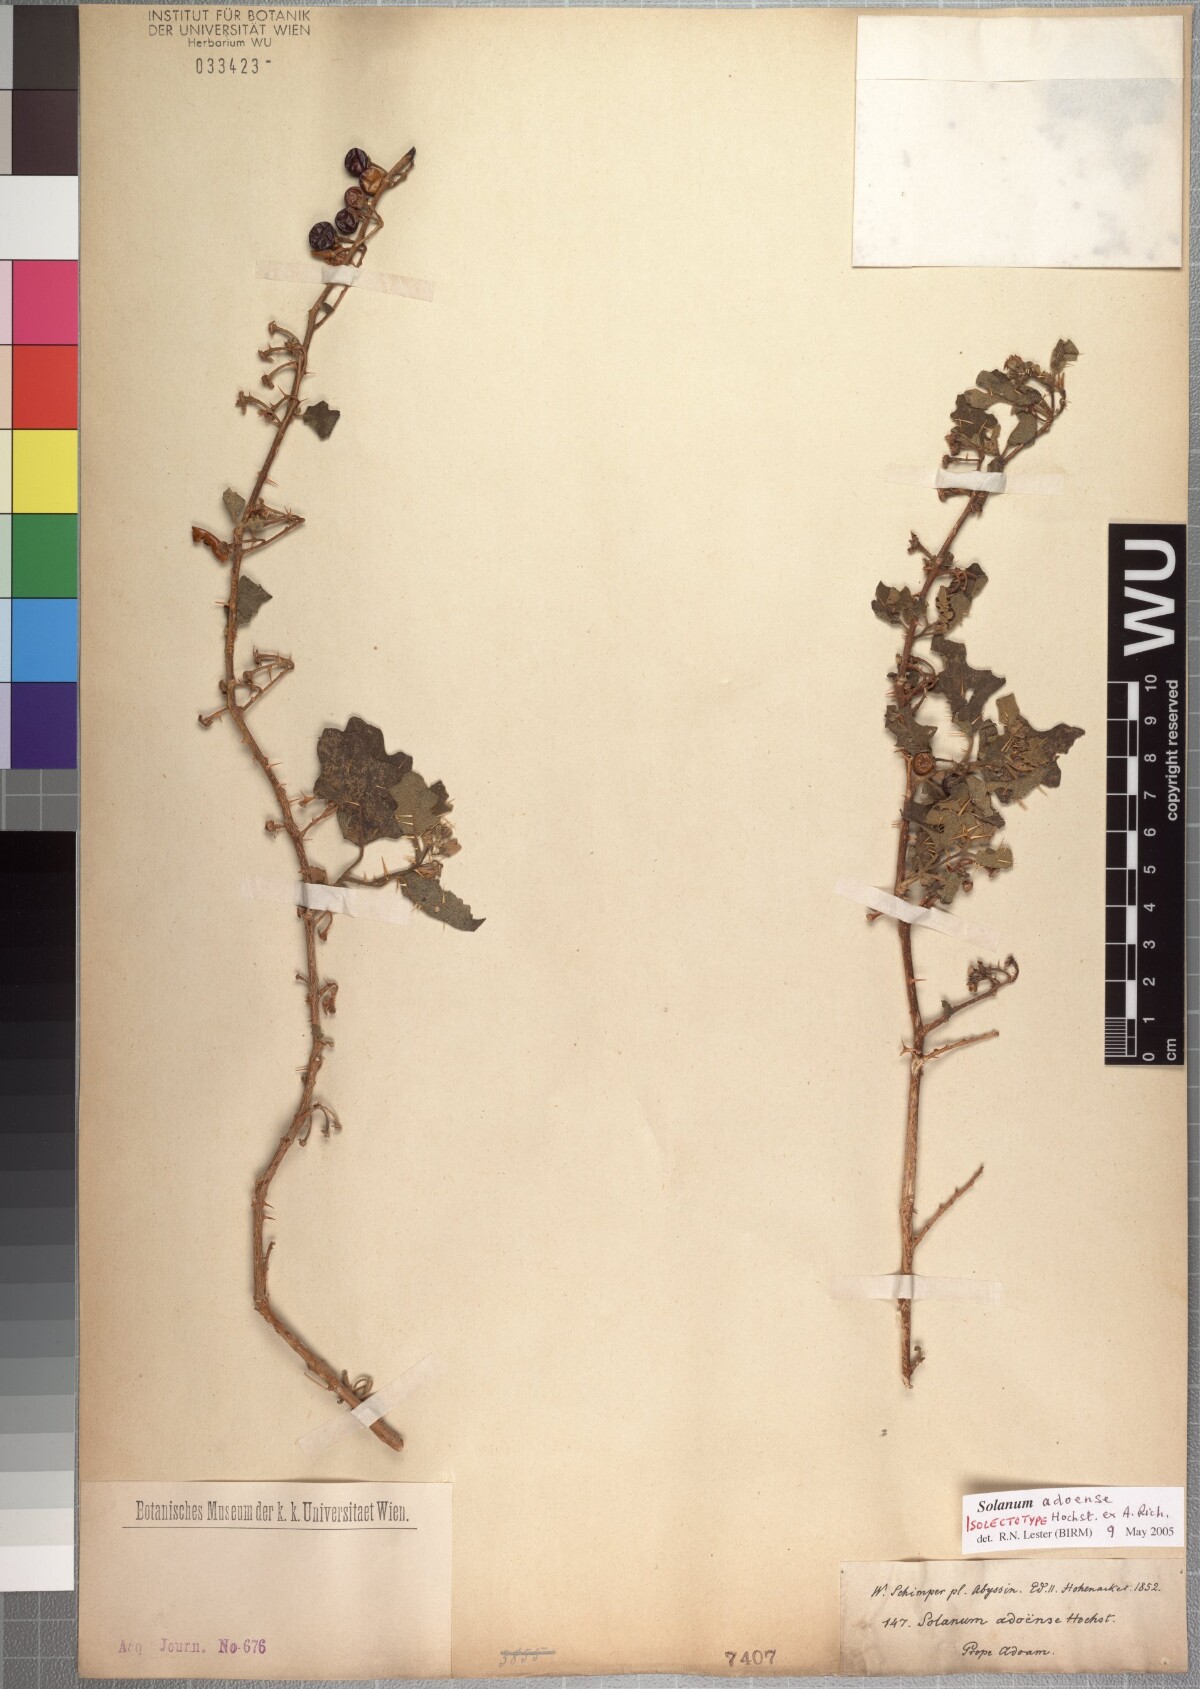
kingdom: Plantae
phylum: Tracheophyta
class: Magnoliopsida
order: Solanales
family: Solanaceae
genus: Solanum
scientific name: Solanum adoense
